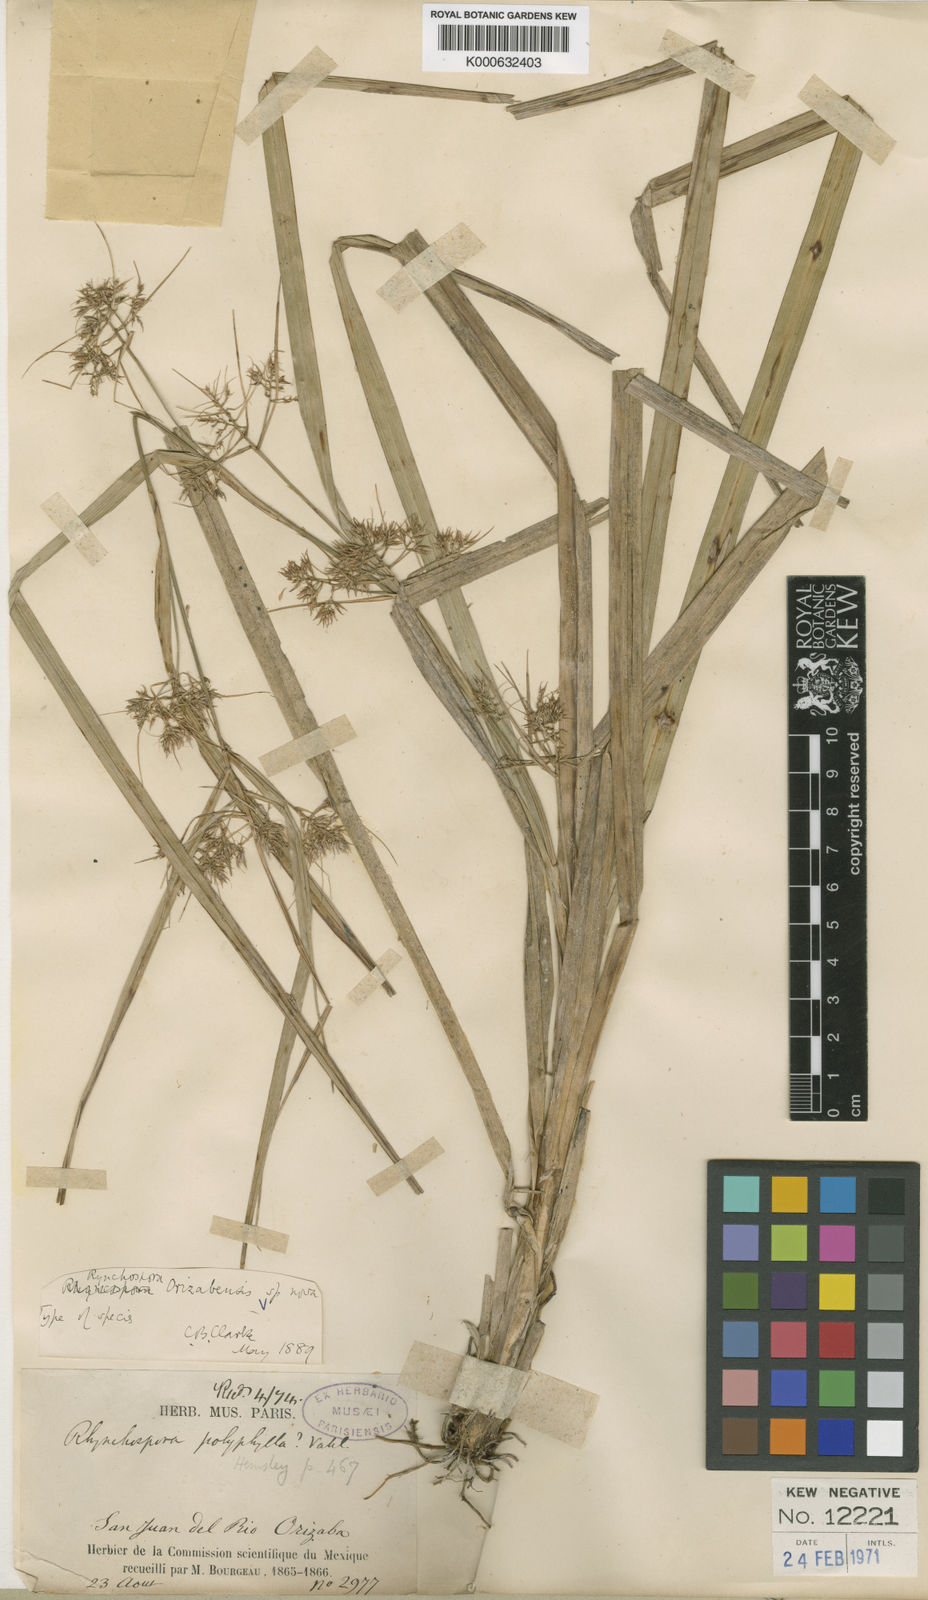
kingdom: Plantae
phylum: Tracheophyta
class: Liliopsida
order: Poales
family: Cyperaceae
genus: Rhynchospora
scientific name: Rhynchospora dives
